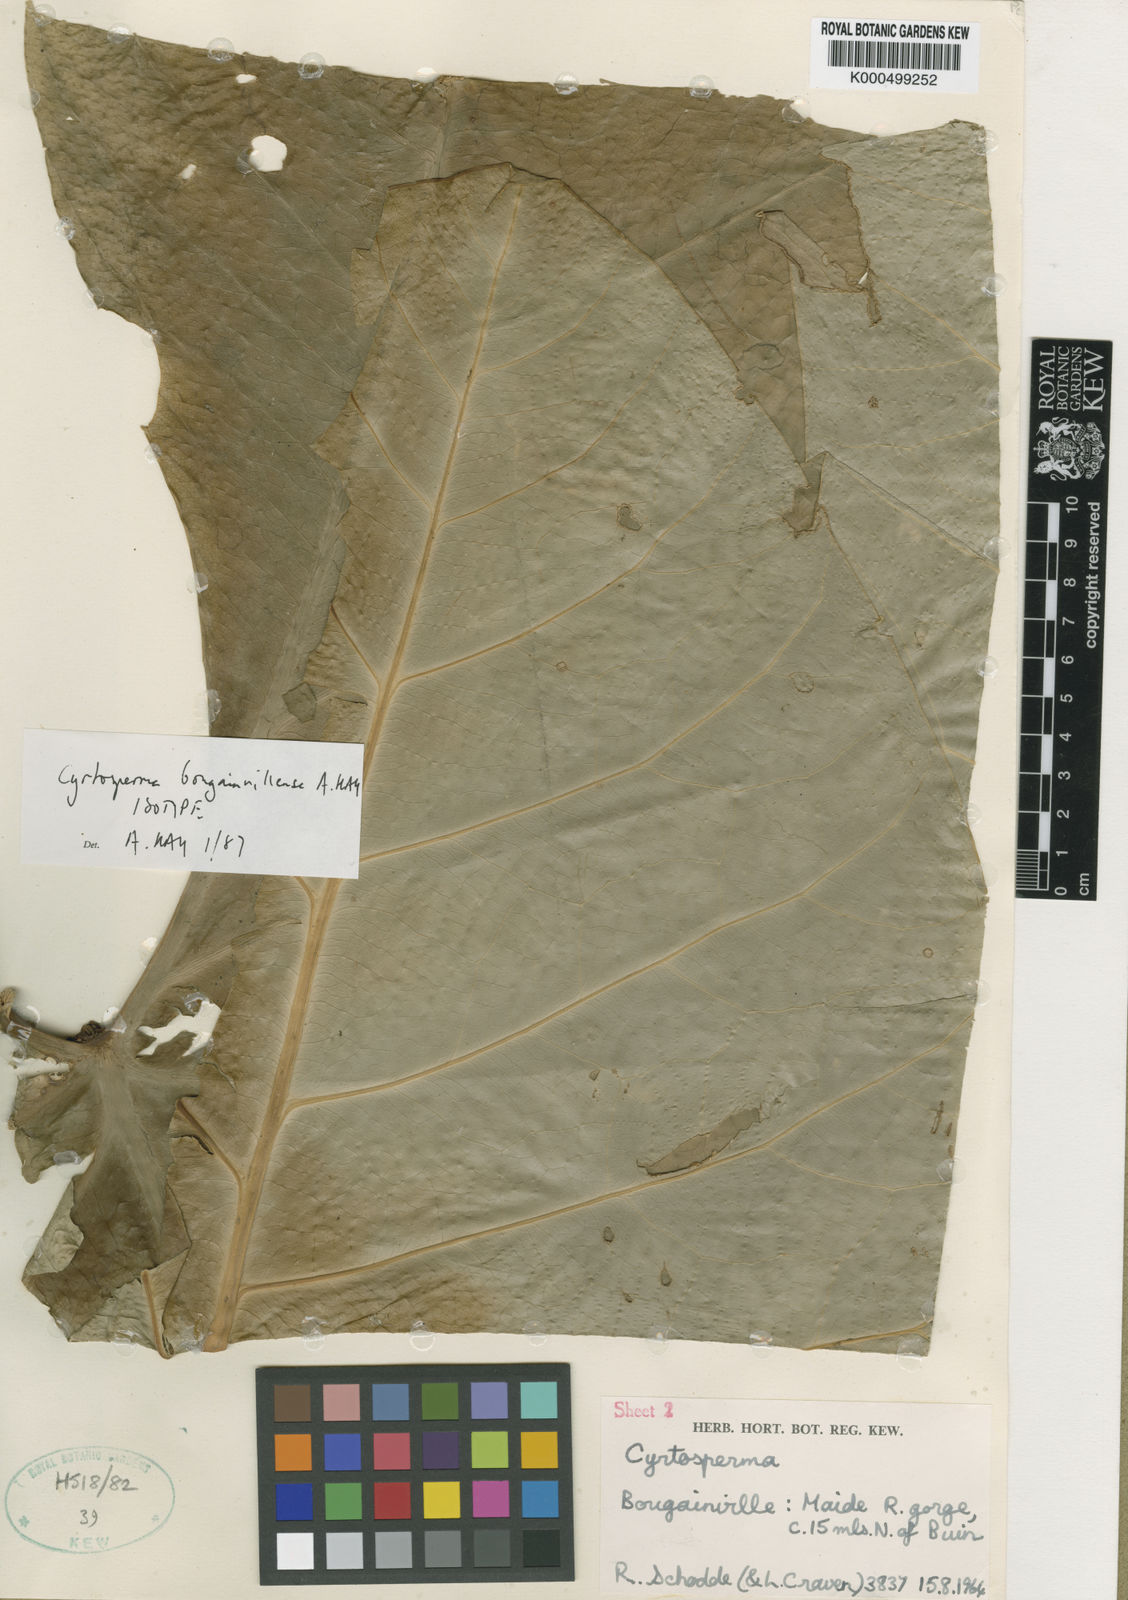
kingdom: Plantae
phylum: Tracheophyta
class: Liliopsida
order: Alismatales
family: Araceae
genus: Cyrtosperma
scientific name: Cyrtosperma
